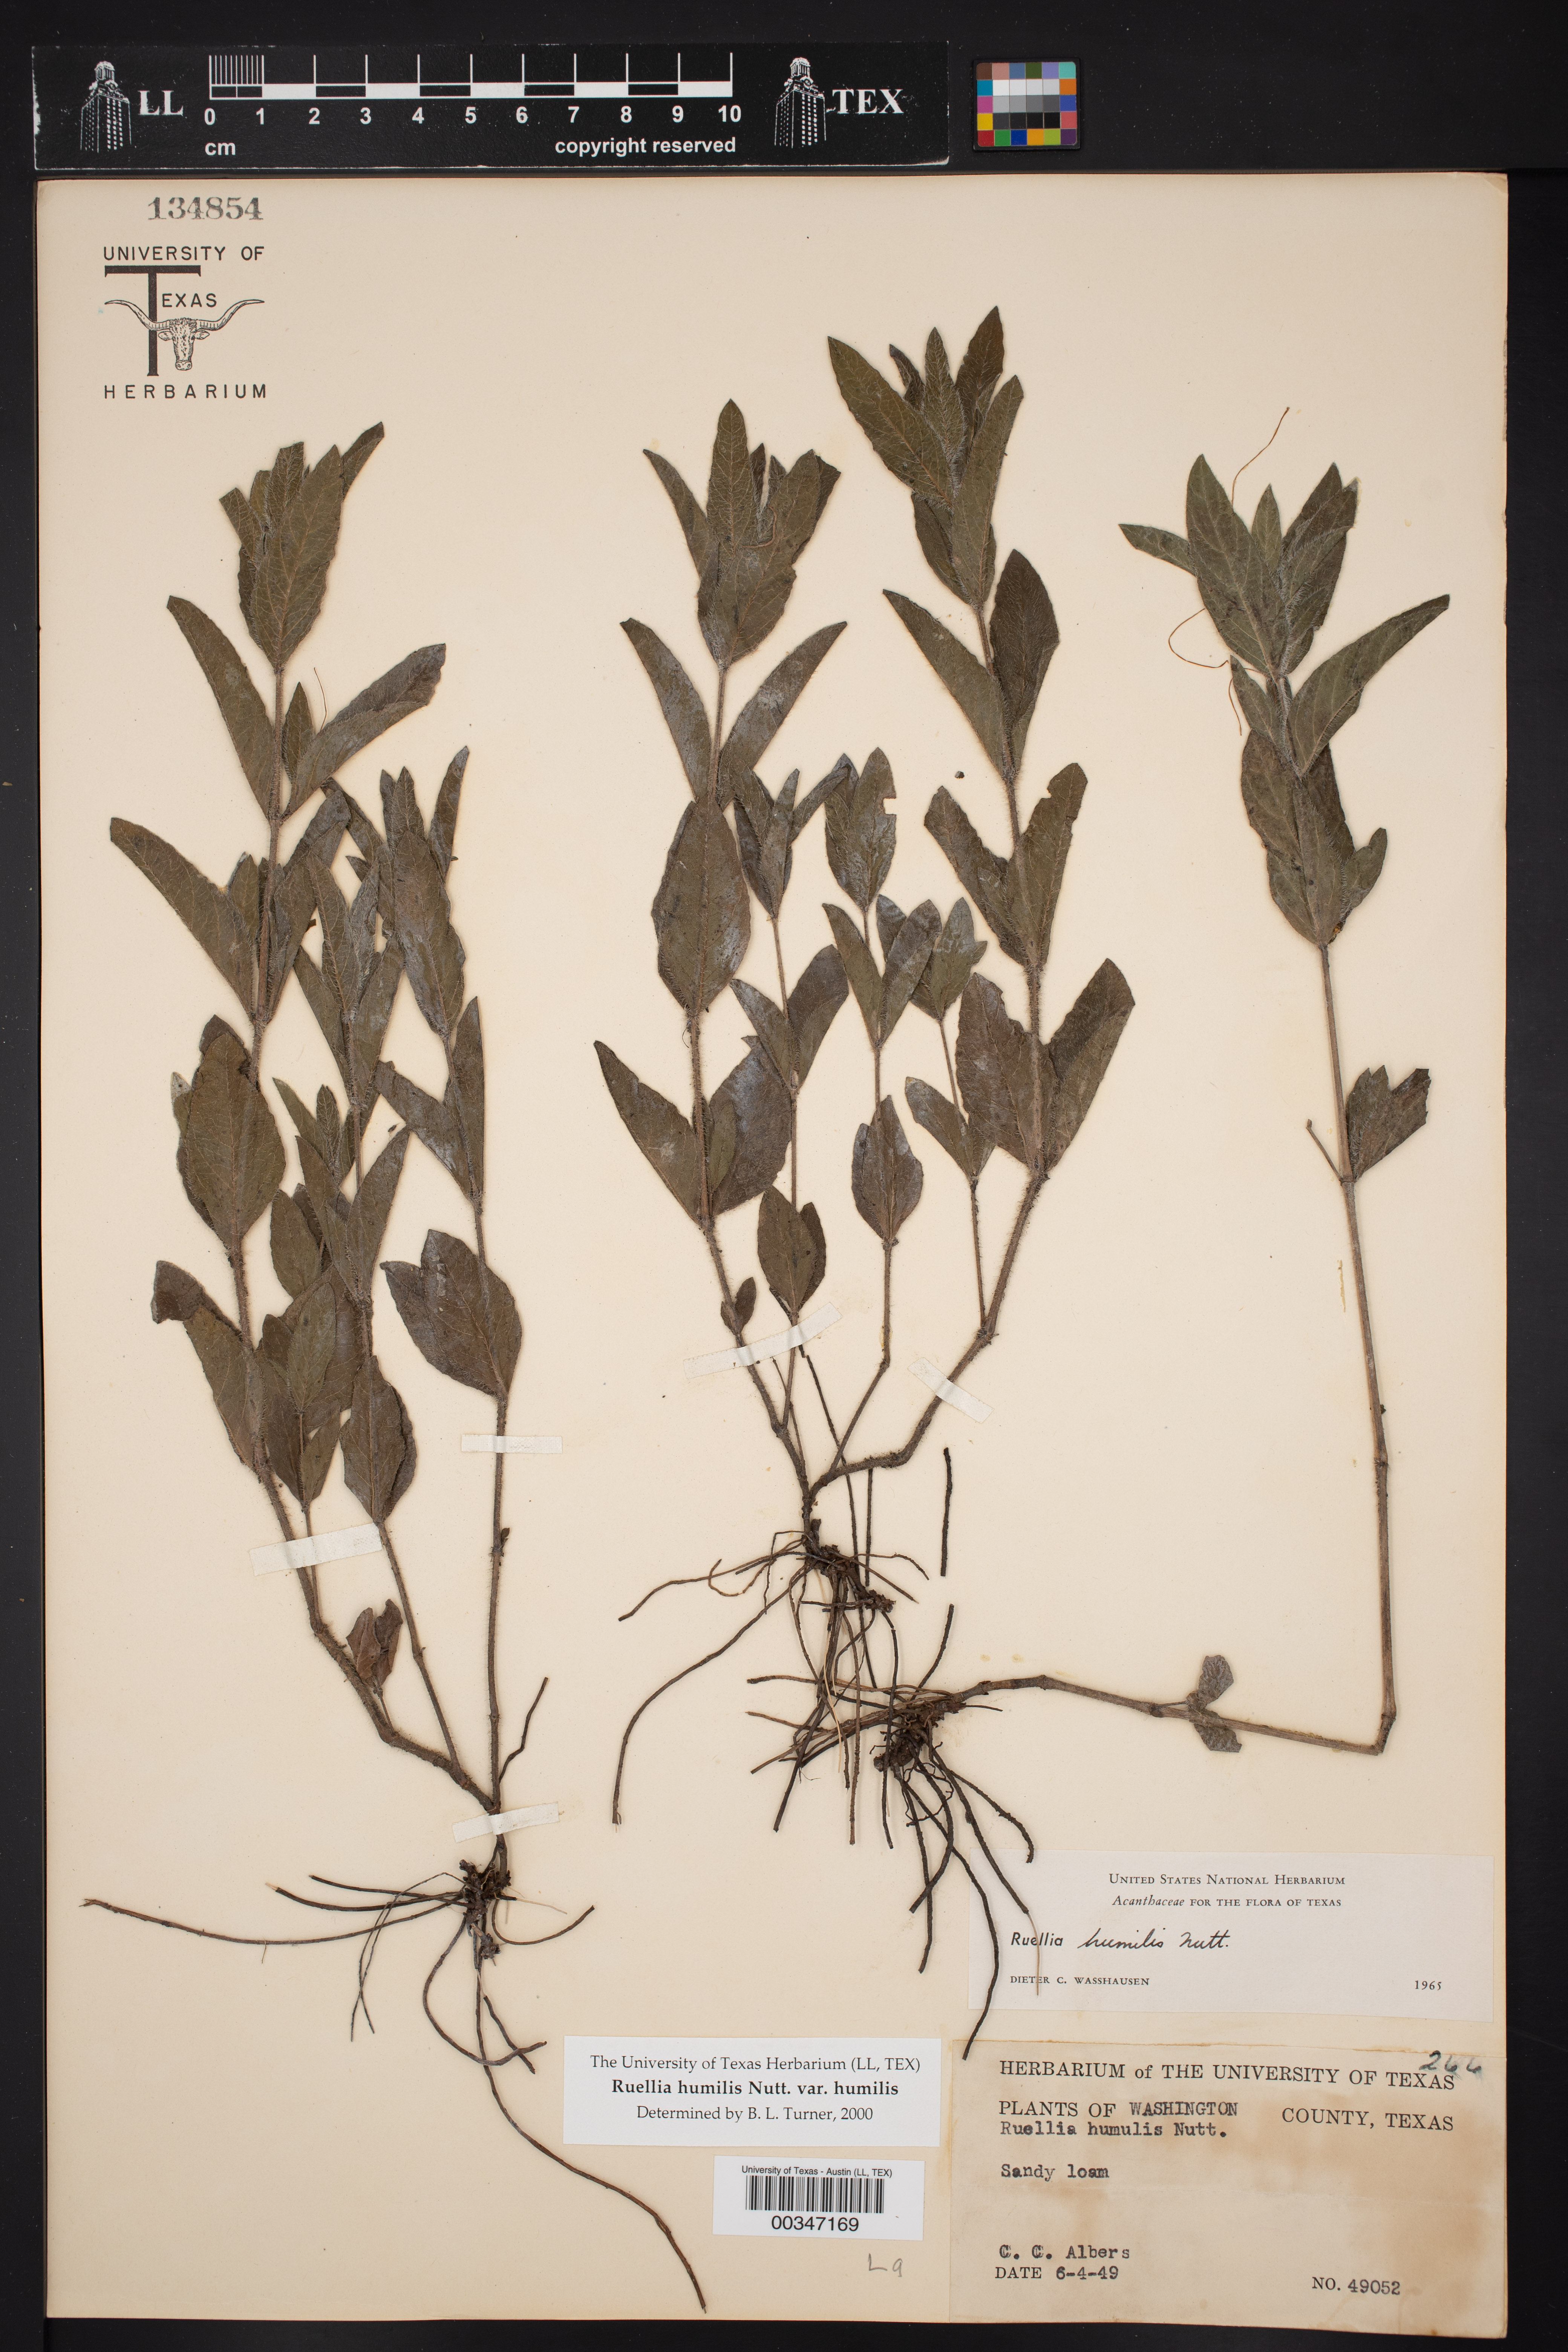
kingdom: Plantae
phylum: Tracheophyta
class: Magnoliopsida
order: Lamiales
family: Acanthaceae
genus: Ruellia
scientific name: Ruellia humilis
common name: Fringe-leaf ruellia
